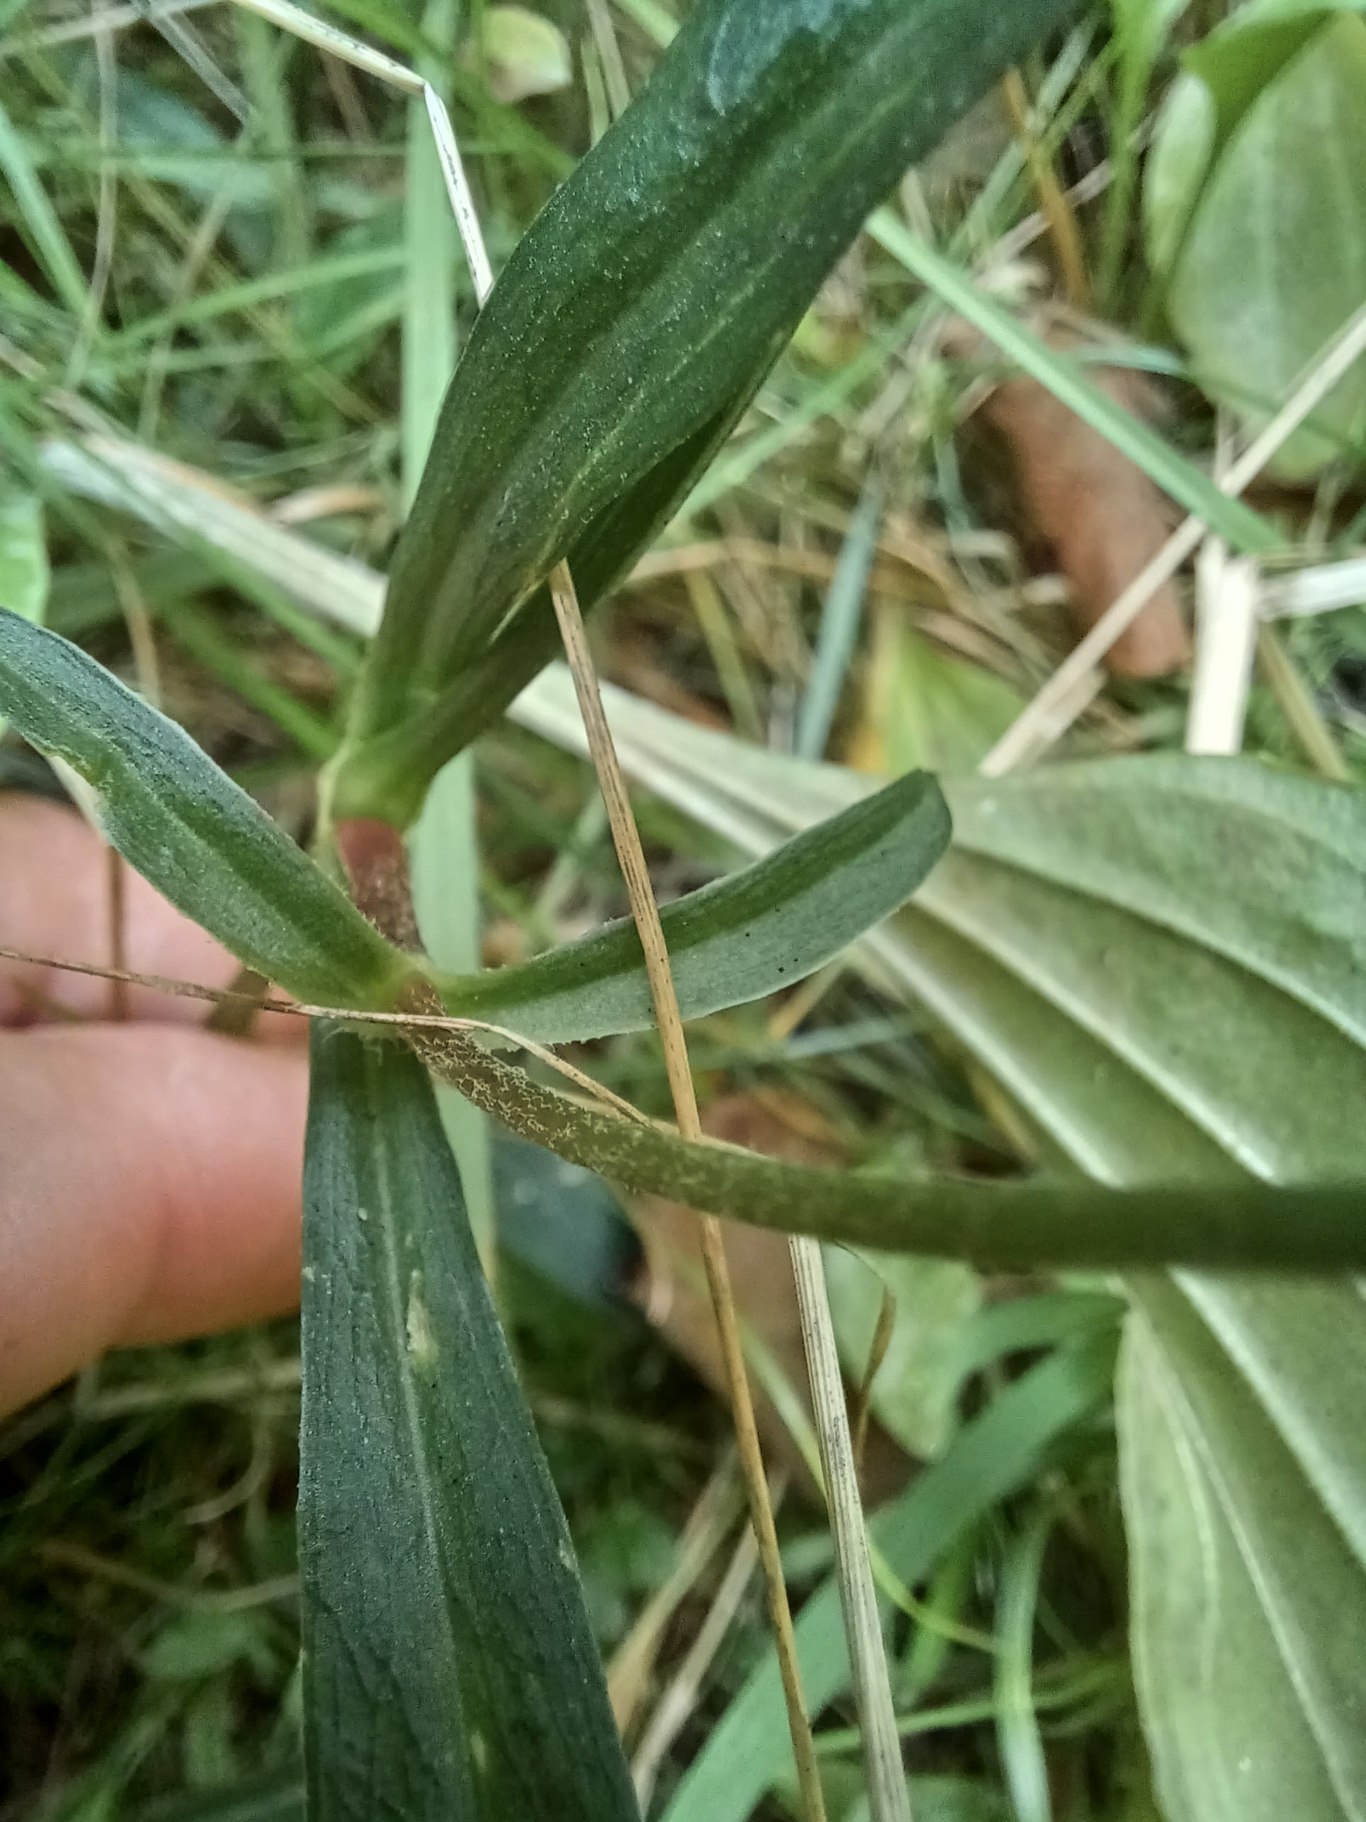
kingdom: Plantae
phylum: Tracheophyta
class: Magnoliopsida
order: Caryophyllales
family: Caryophyllaceae
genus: Silene
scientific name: Silene flos-cuculi
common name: Trævlekrone
